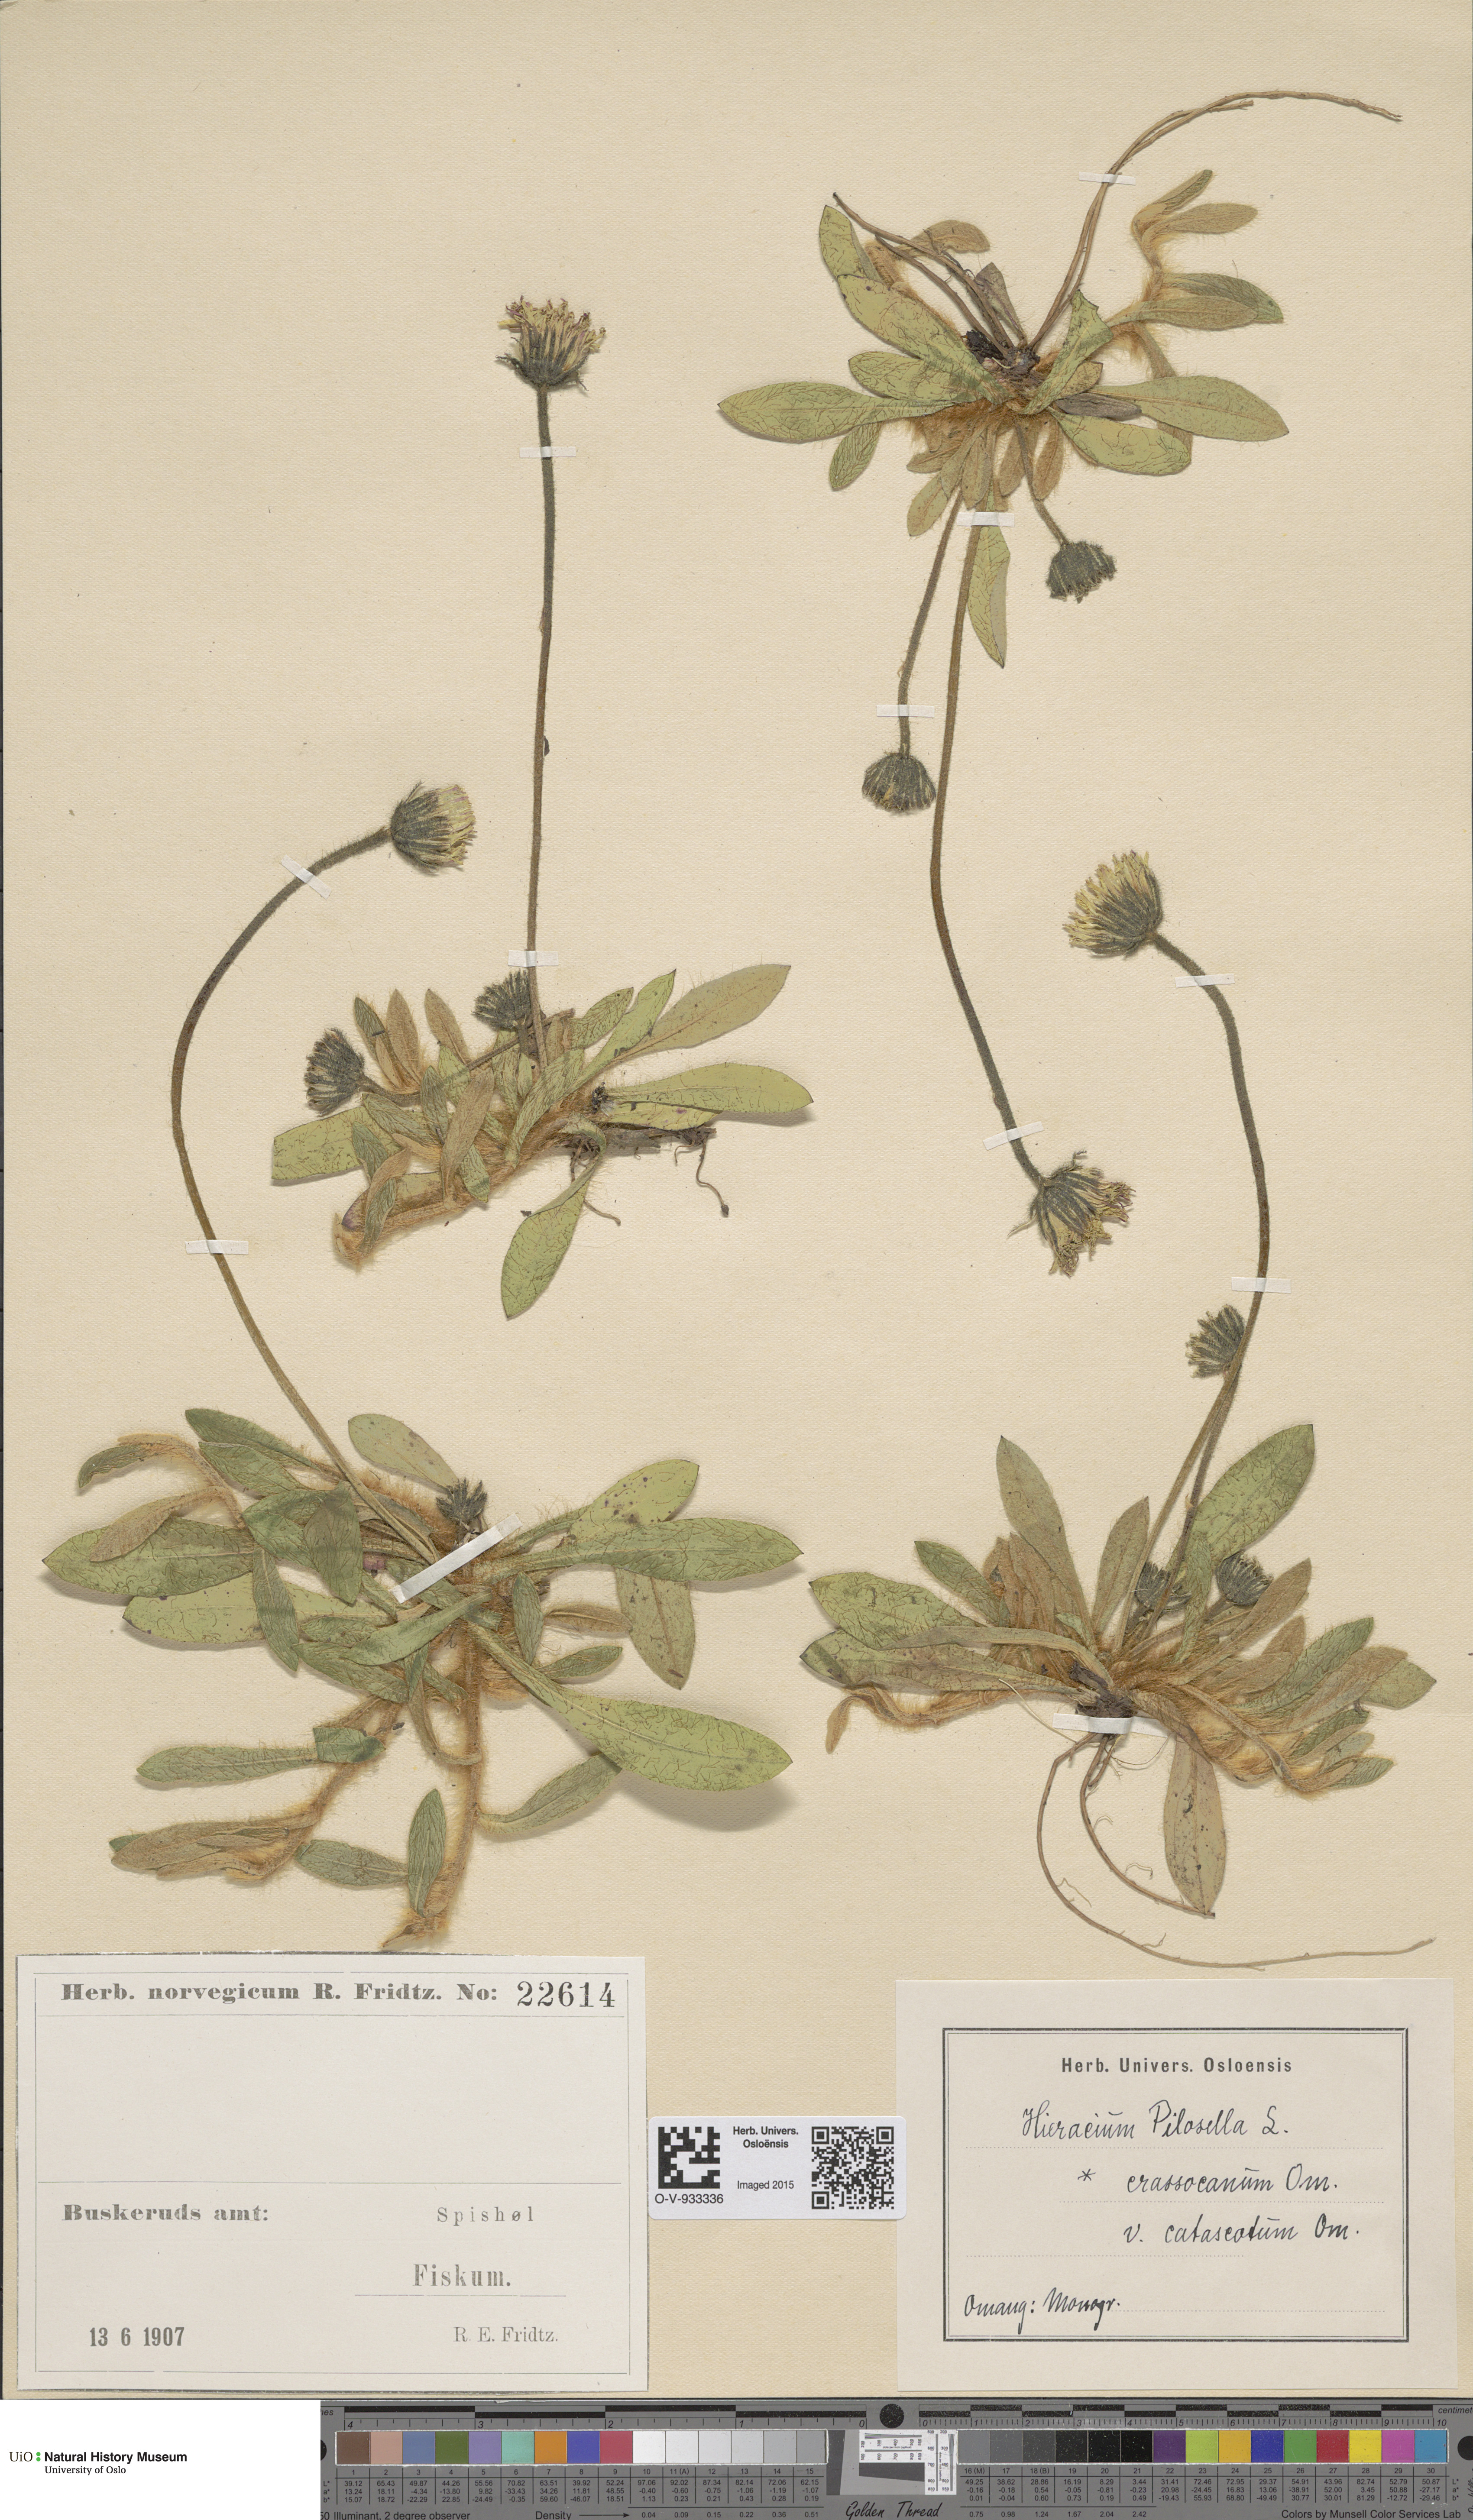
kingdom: Plantae
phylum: Tracheophyta
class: Magnoliopsida
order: Asterales
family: Asteraceae
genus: Pilosella
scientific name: Pilosella officinarum
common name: Mouse-ear hawkweed
